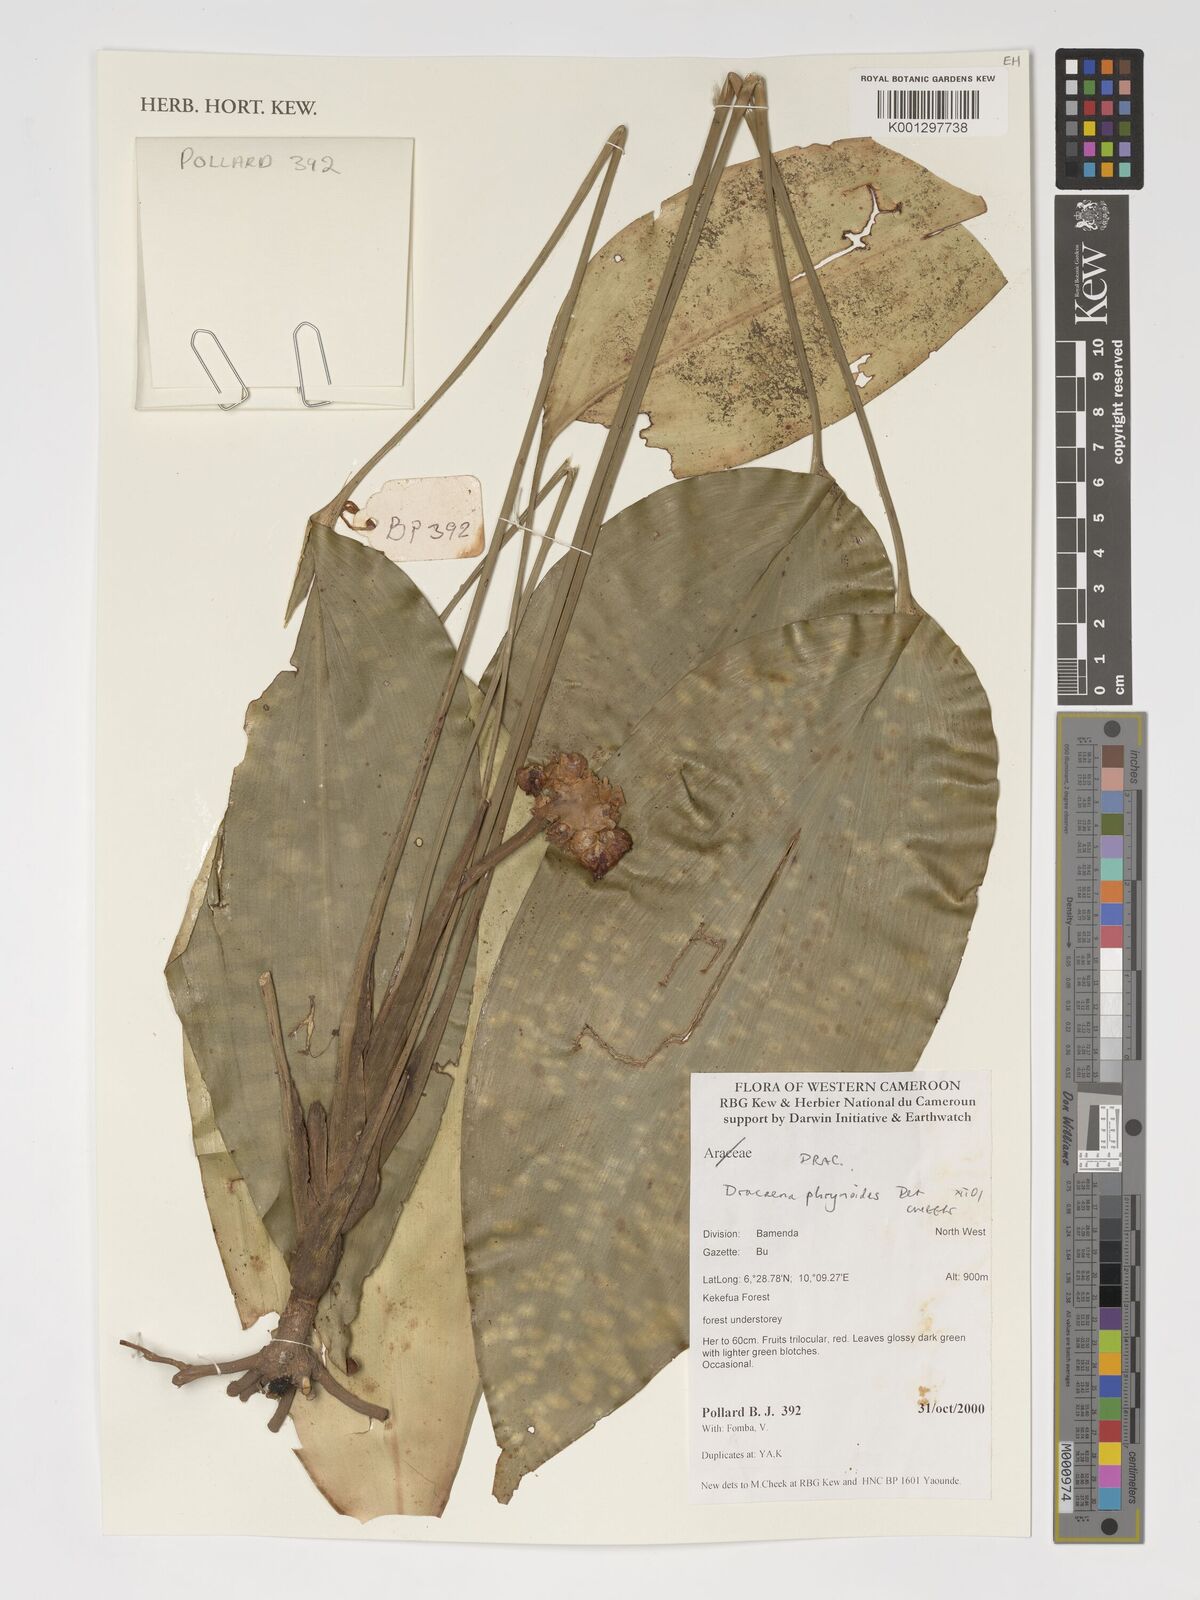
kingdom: Plantae
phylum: Tracheophyta
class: Liliopsida
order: Asparagales
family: Asparagaceae
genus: Dracaena
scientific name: Dracaena phrynioides
